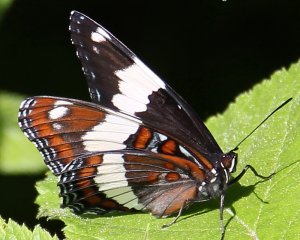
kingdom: Animalia
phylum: Arthropoda
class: Insecta
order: Lepidoptera
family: Nymphalidae
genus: Limenitis
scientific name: Limenitis arthemis
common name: Red-spotted Admiral
